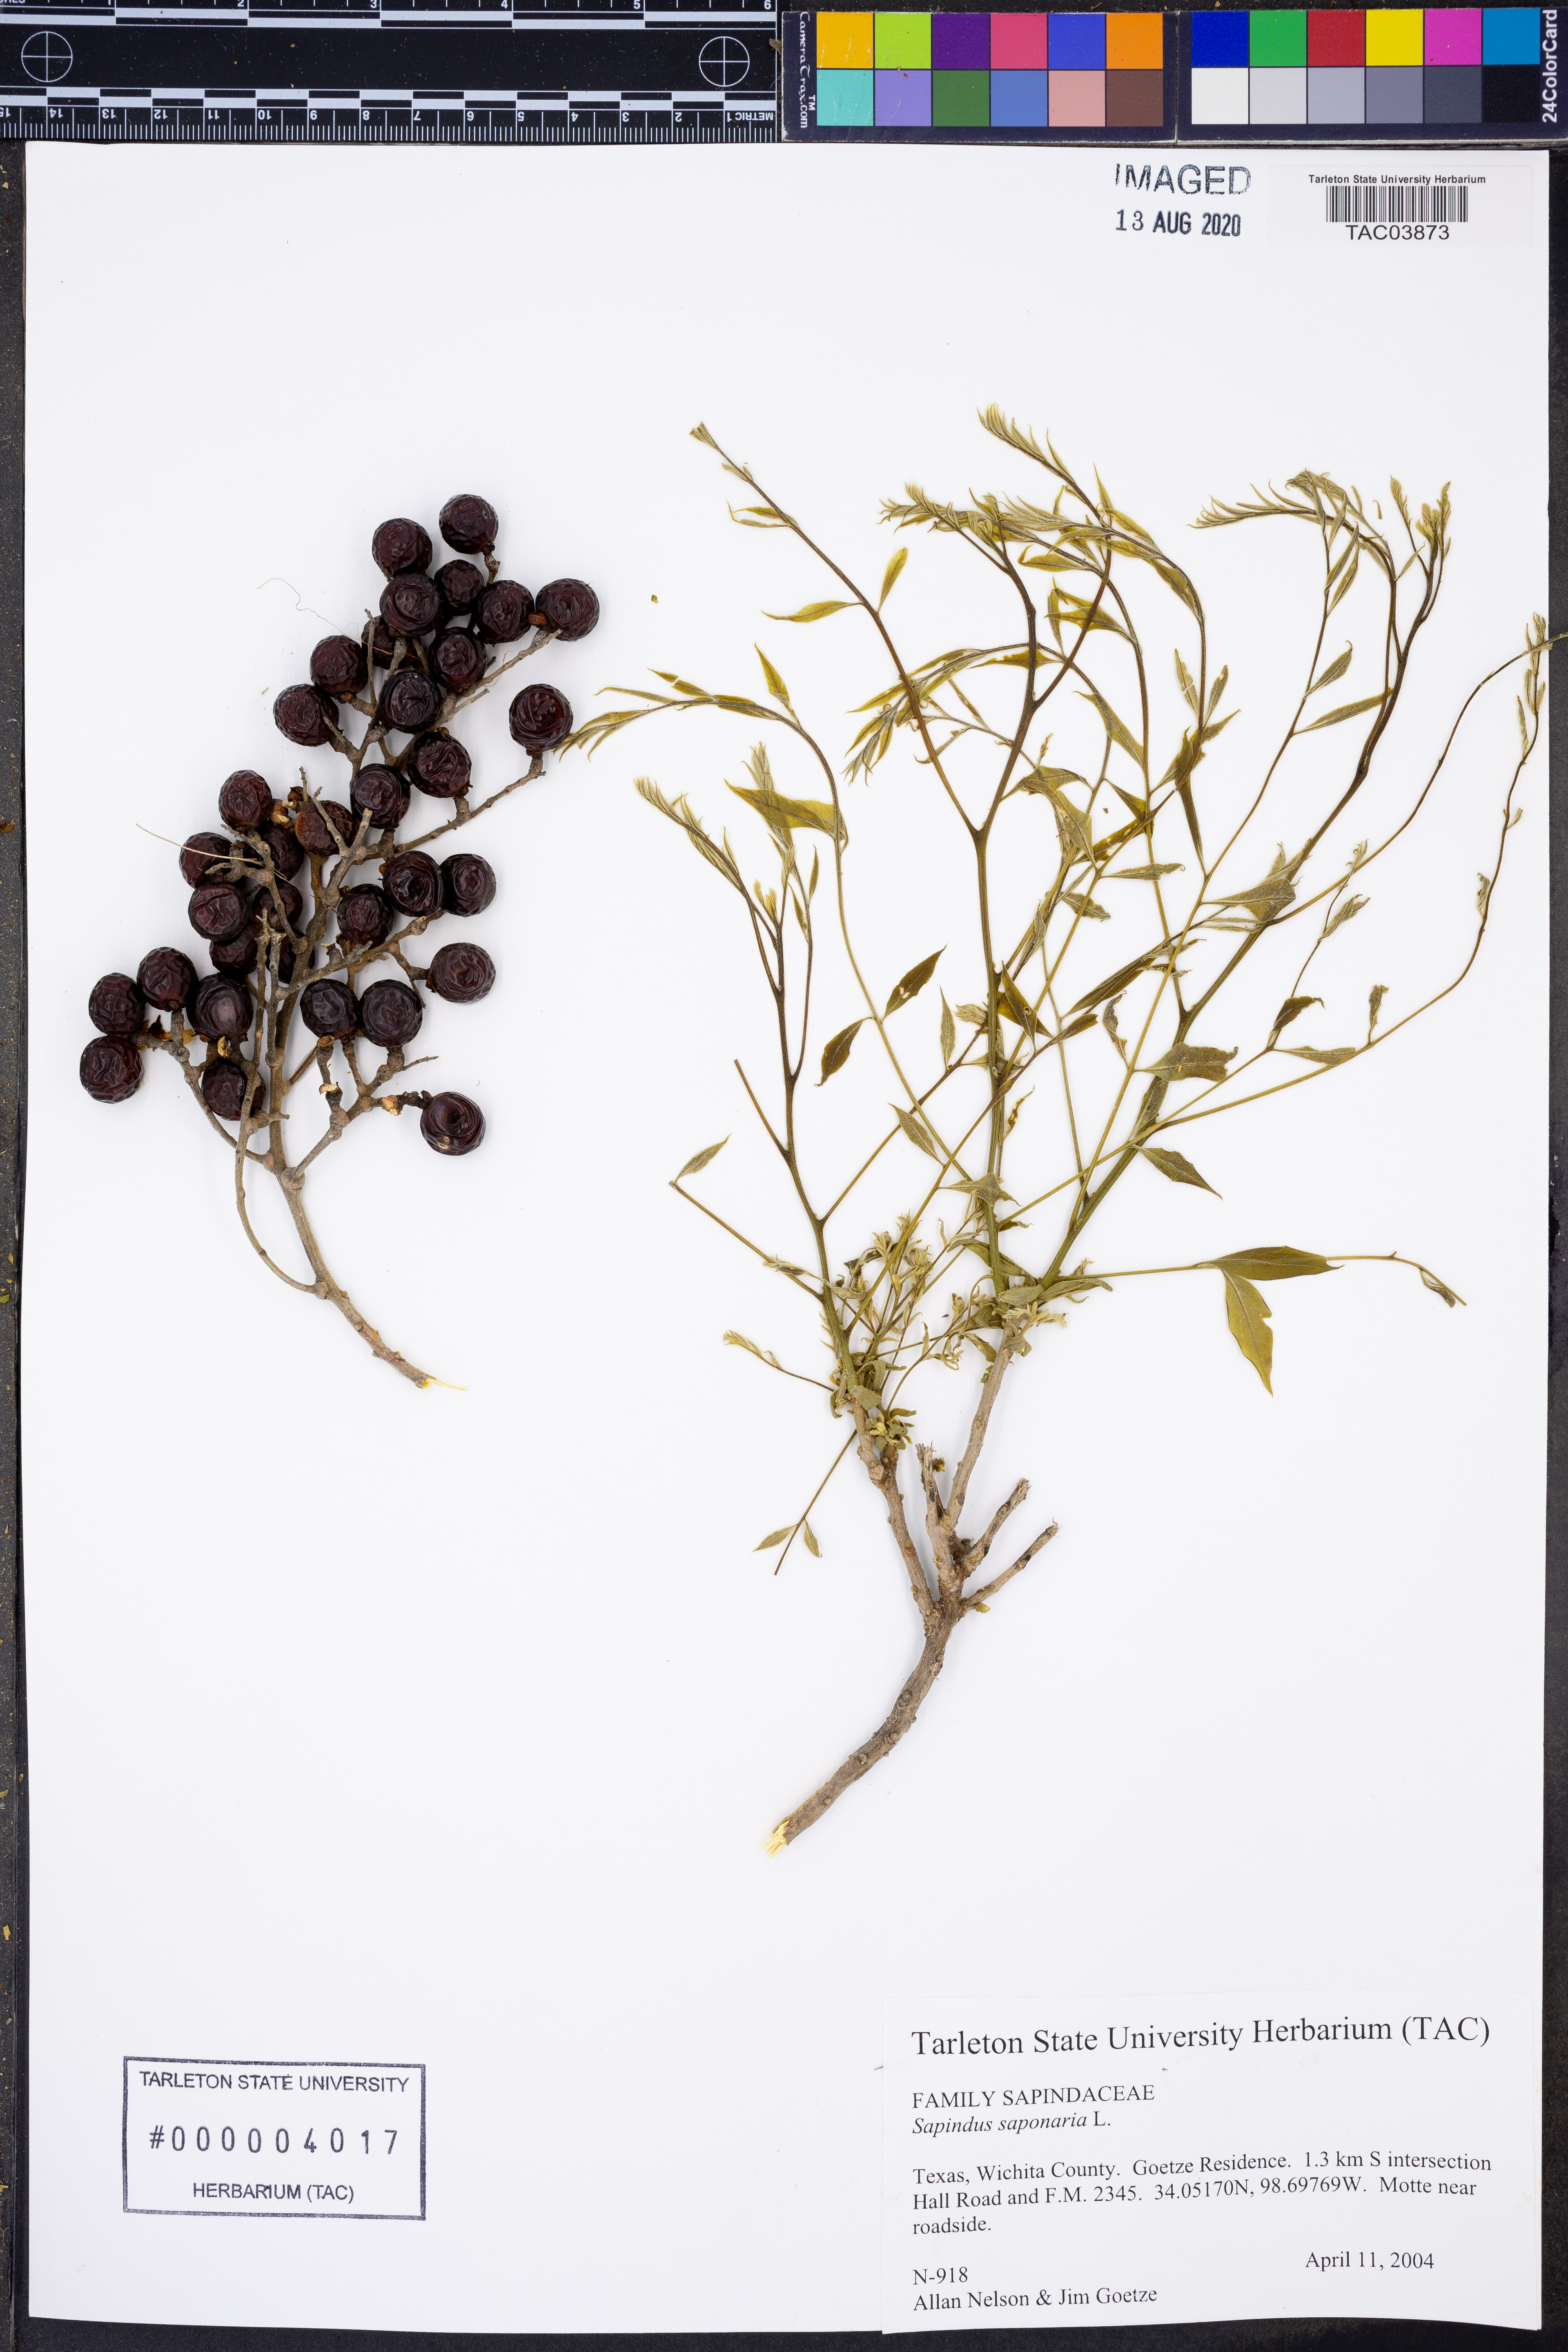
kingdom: Plantae
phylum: Tracheophyta
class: Magnoliopsida
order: Sapindales
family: Sapindaceae
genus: Sapindus
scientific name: Sapindus saponaria
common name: Wingleaf soapberry
